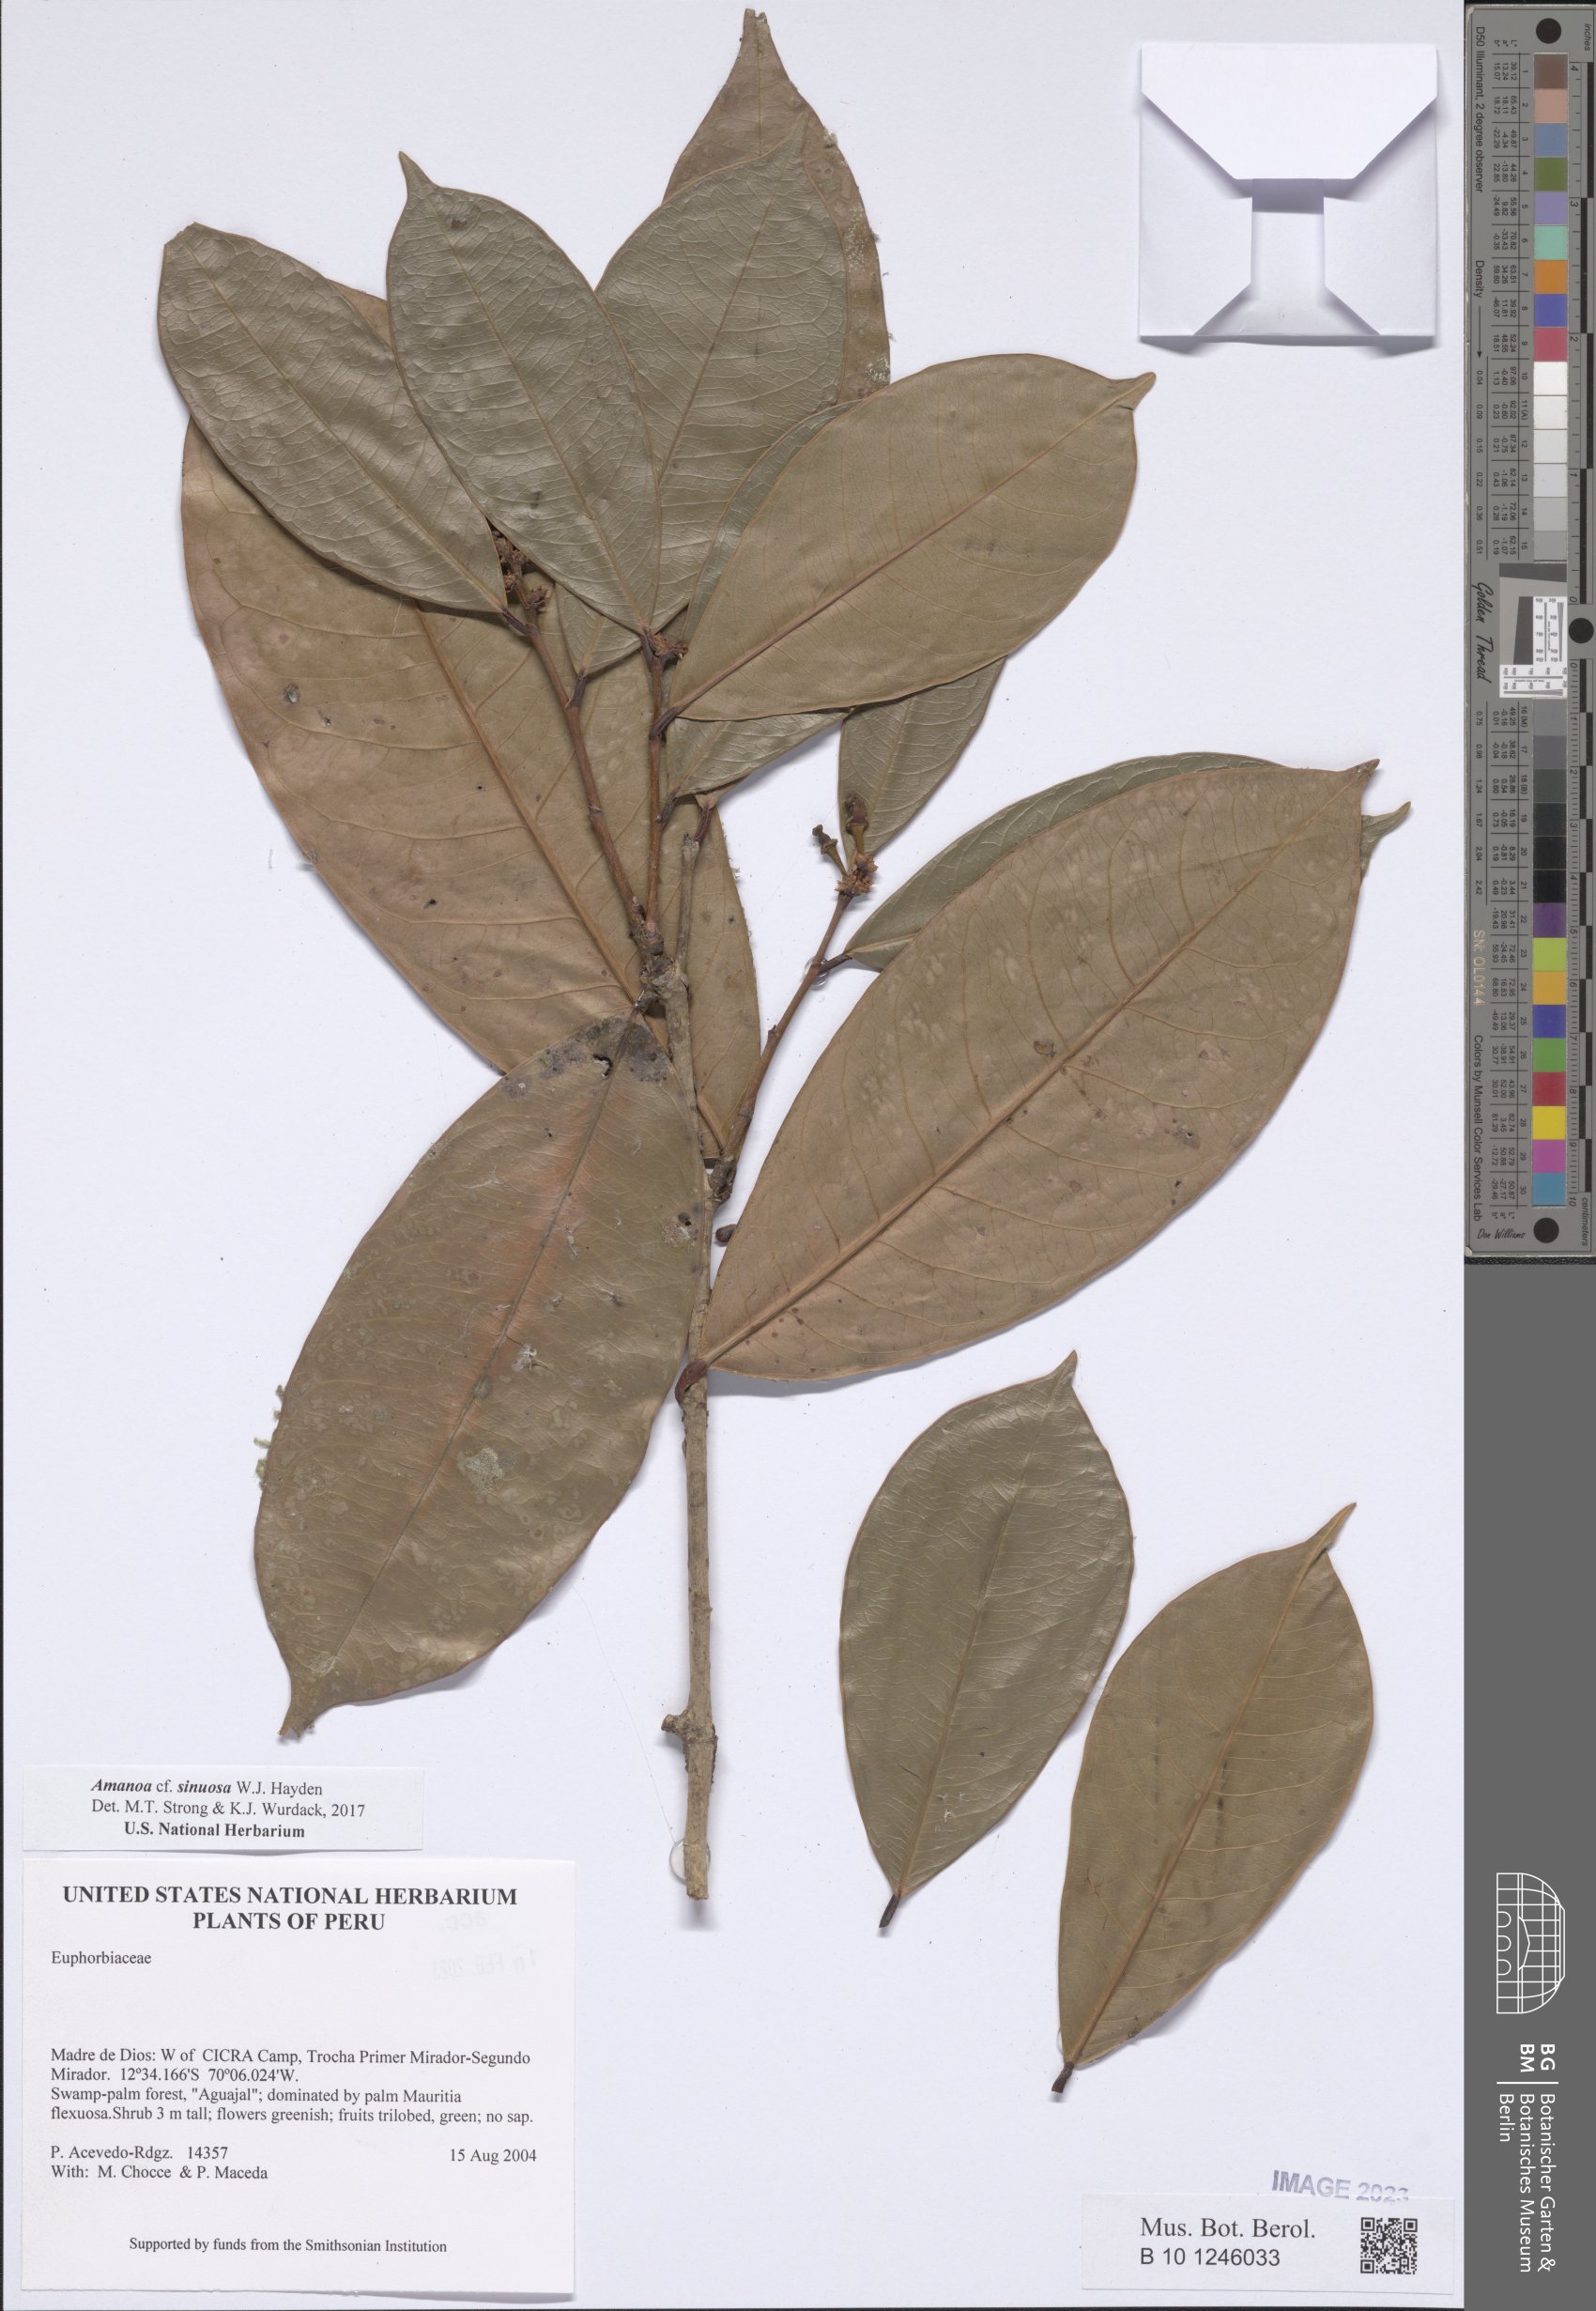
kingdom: Plantae
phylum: Tracheophyta
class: Magnoliopsida
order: Malpighiales
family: Phyllanthaceae
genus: Amanoa
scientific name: Amanoa sinuosa
